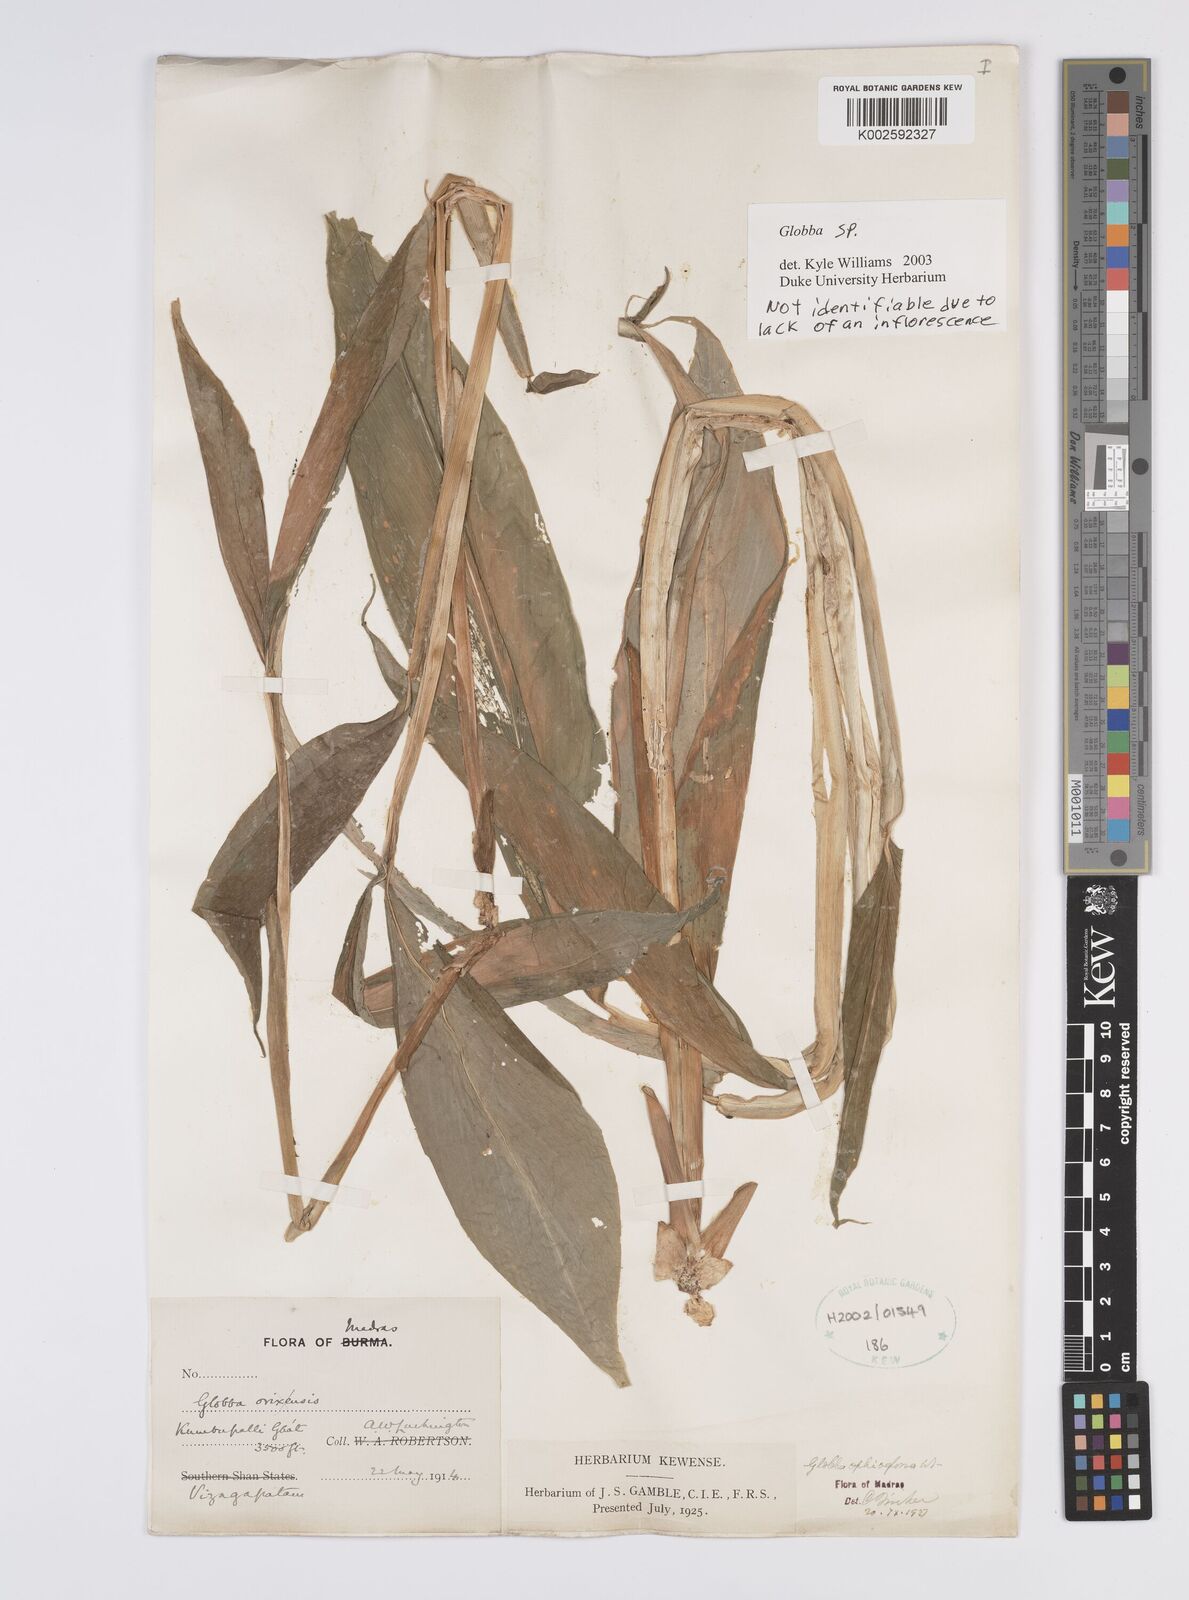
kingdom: Plantae
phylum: Tracheophyta
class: Liliopsida
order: Zingiberales
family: Zingiberaceae
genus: Globba
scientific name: Globba
